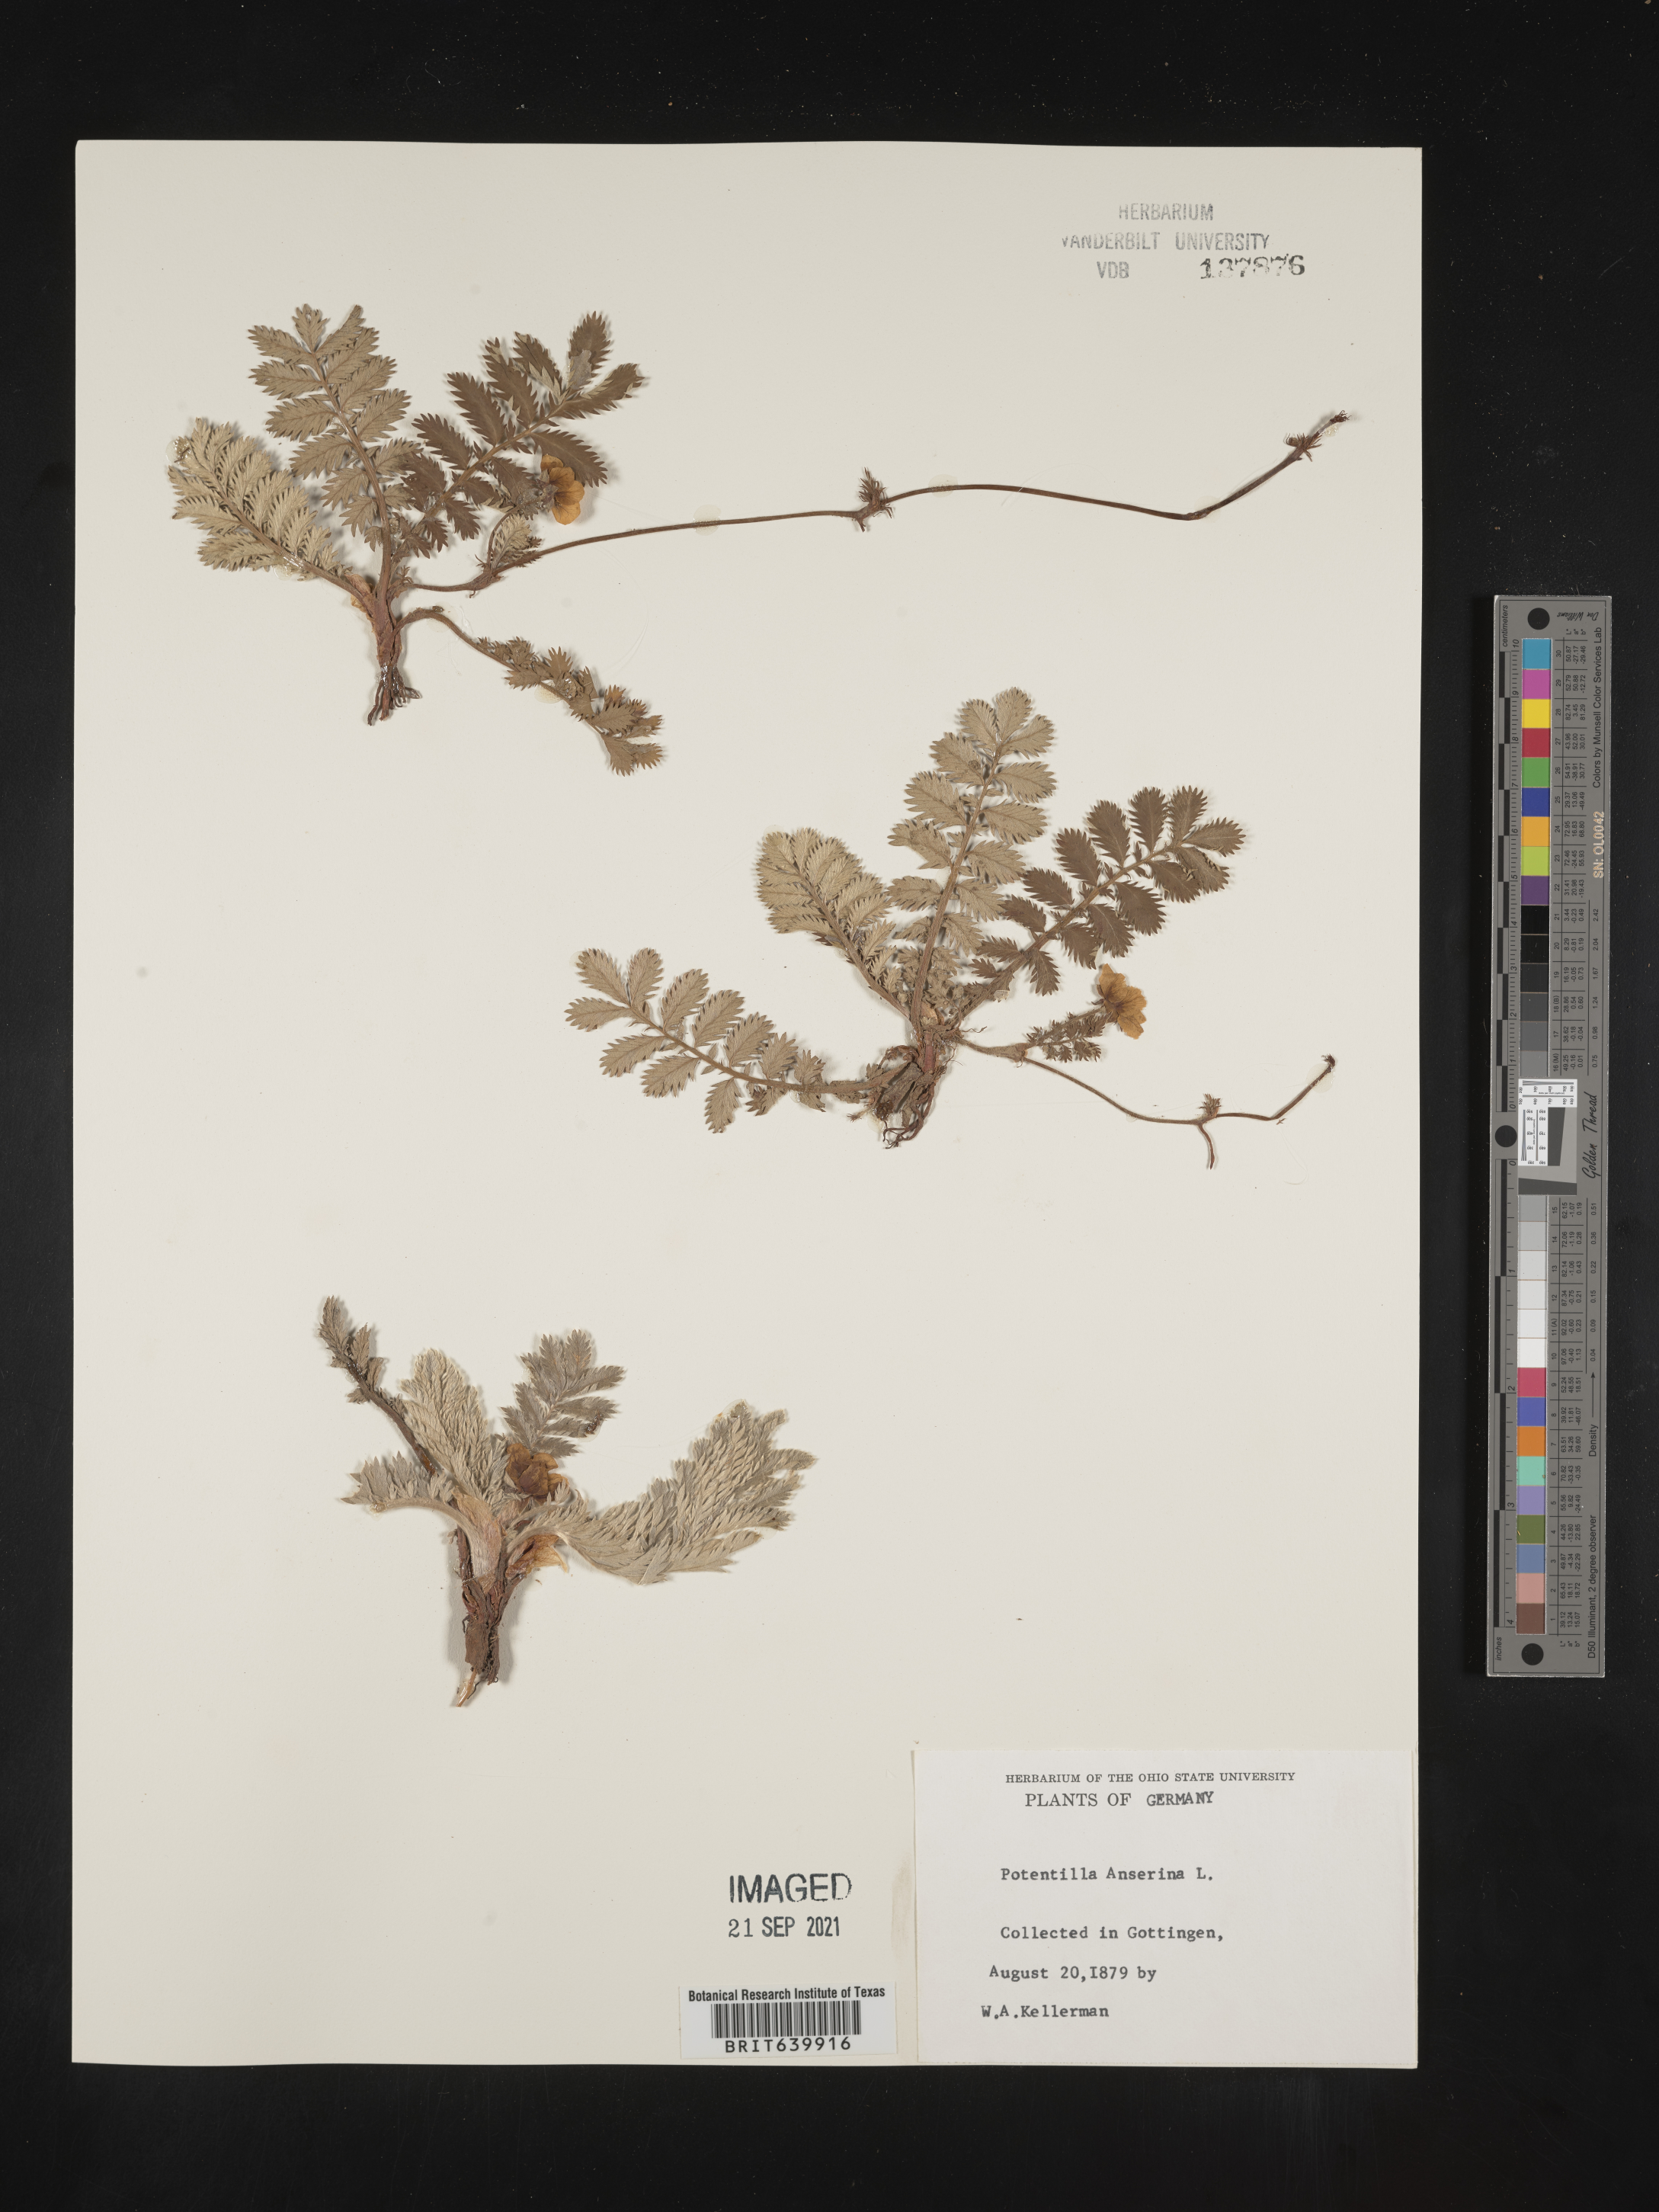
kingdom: Plantae
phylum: Tracheophyta
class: Magnoliopsida
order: Rosales
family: Rosaceae
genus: Potentilla
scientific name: Potentilla
